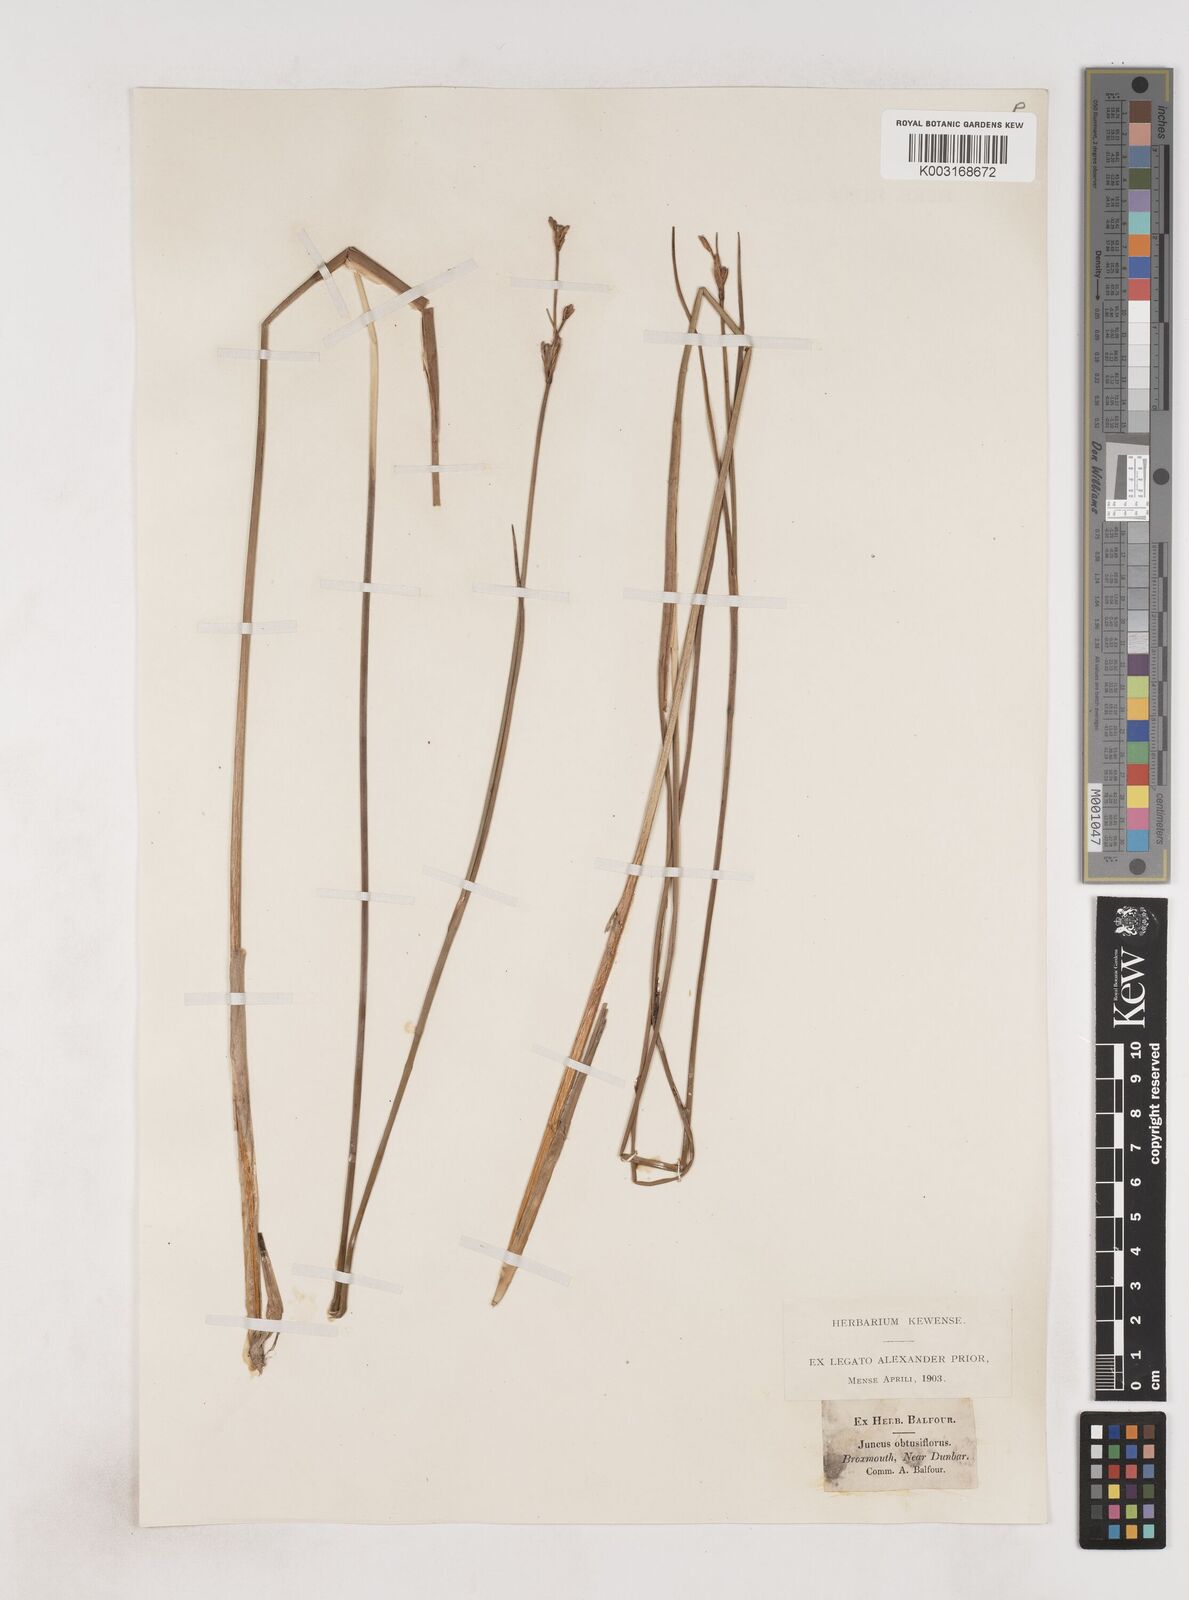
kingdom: Plantae
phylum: Tracheophyta
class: Liliopsida
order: Poales
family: Juncaceae
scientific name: Juncaceae
